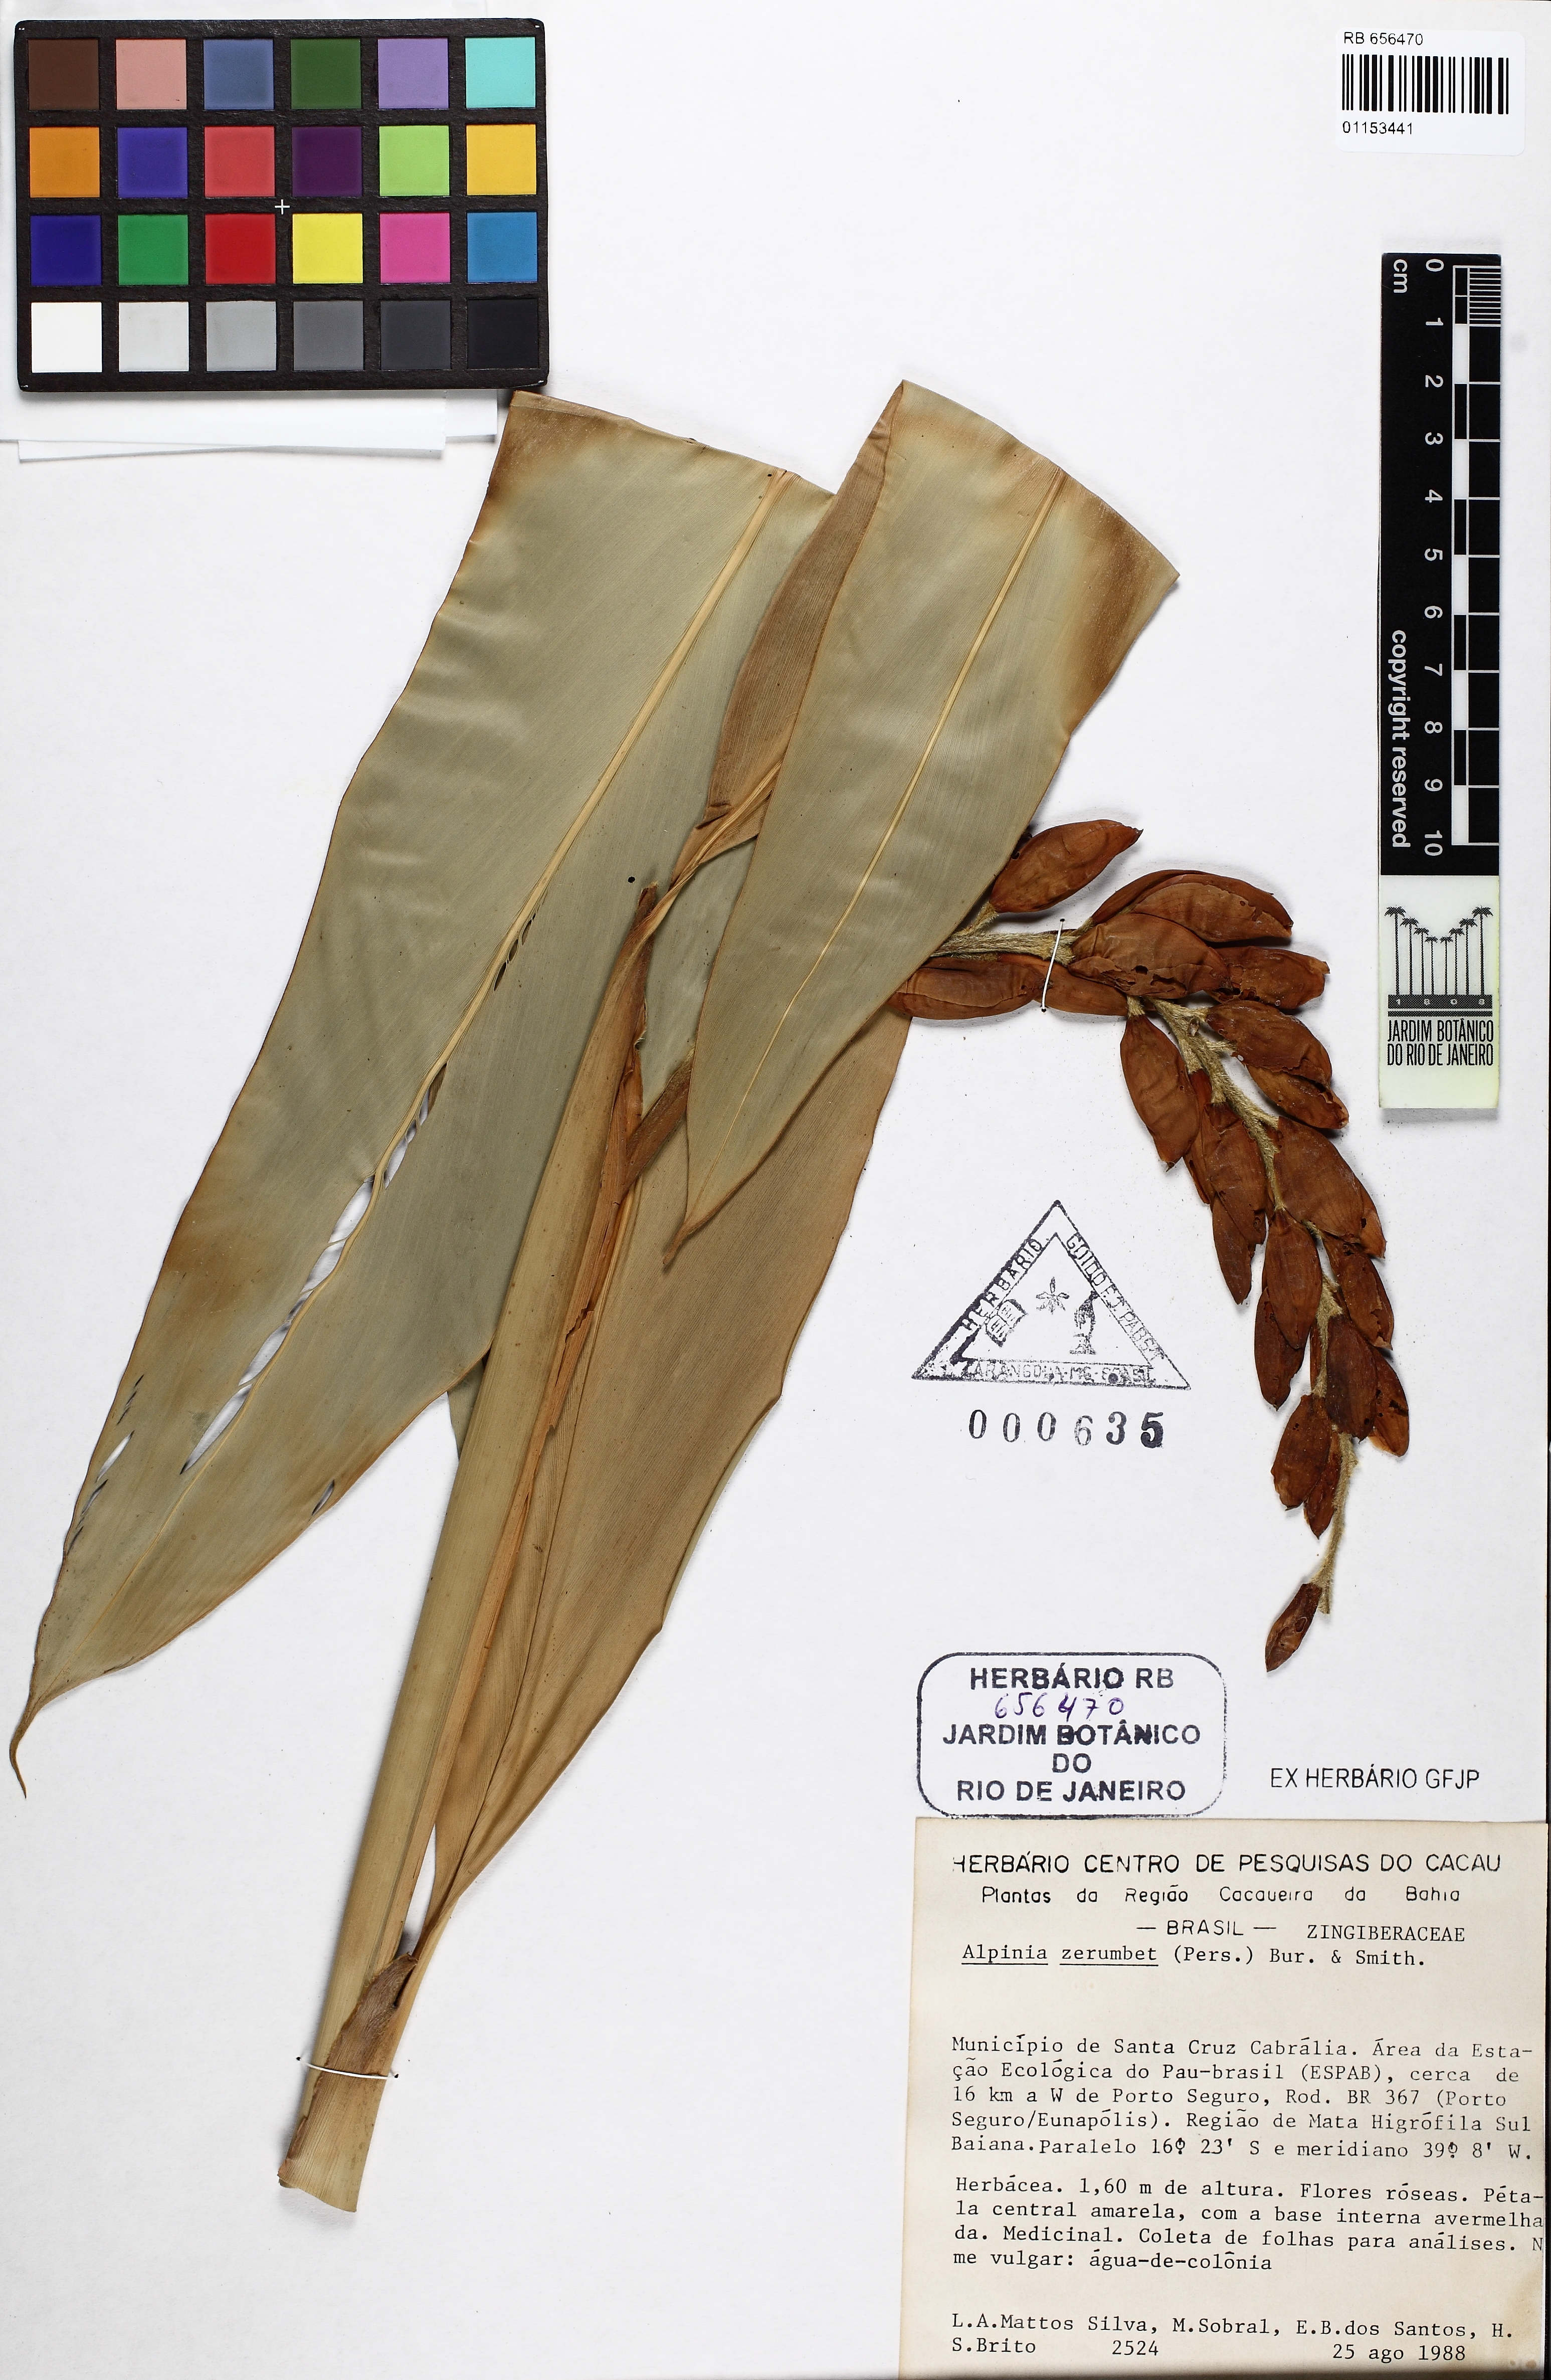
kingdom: Plantae
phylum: Tracheophyta
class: Liliopsida
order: Zingiberales
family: Zingiberaceae
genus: Alpinia
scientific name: Alpinia zerumbet
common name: Shellplant
